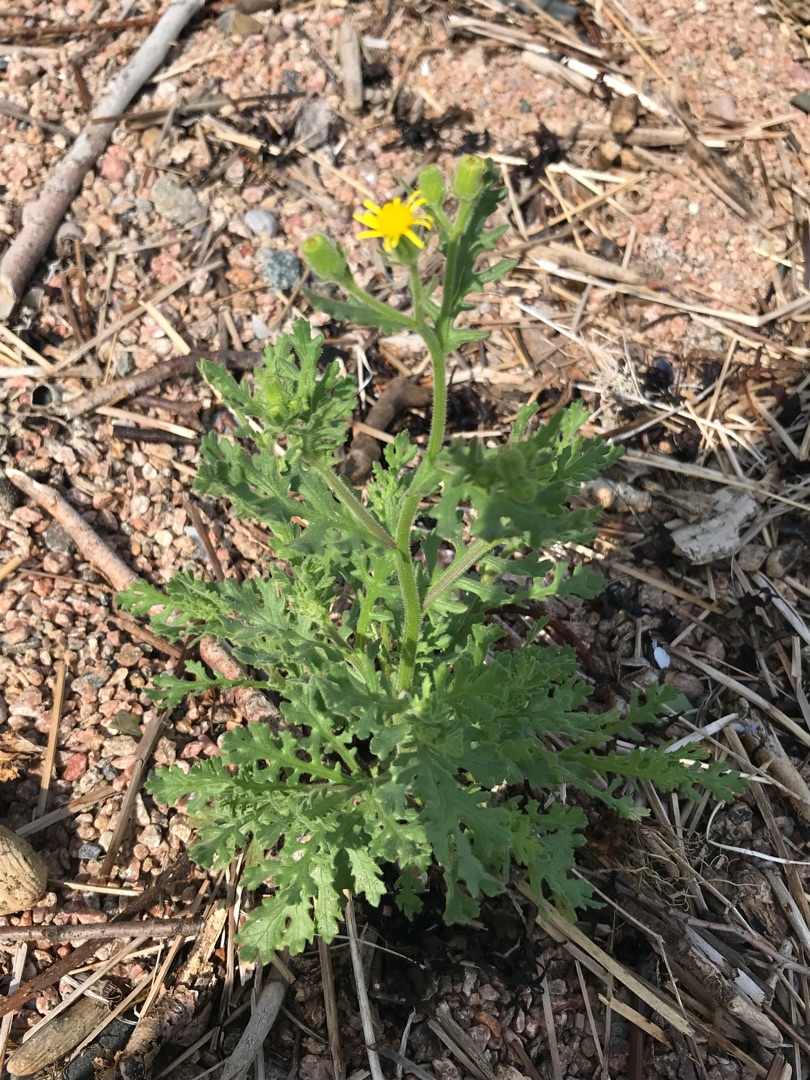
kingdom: Plantae
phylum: Tracheophyta
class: Magnoliopsida
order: Asterales
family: Asteraceae
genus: Senecio
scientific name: Senecio viscosus
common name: Klæbrig brandbæger
